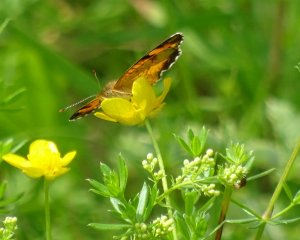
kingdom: Animalia
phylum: Arthropoda
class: Insecta
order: Lepidoptera
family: Nymphalidae
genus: Phyciodes
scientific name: Phyciodes tharos
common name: Northern Crescent
